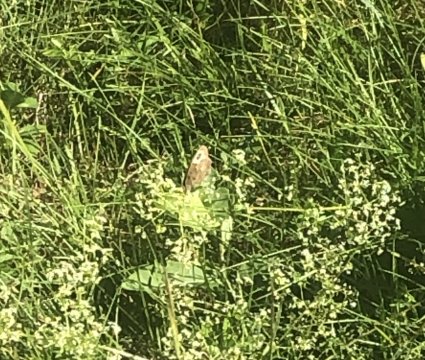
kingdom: Animalia
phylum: Arthropoda
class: Insecta
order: Lepidoptera
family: Nymphalidae
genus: Cercyonis
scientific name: Cercyonis pegala
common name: Common Wood-Nymph
